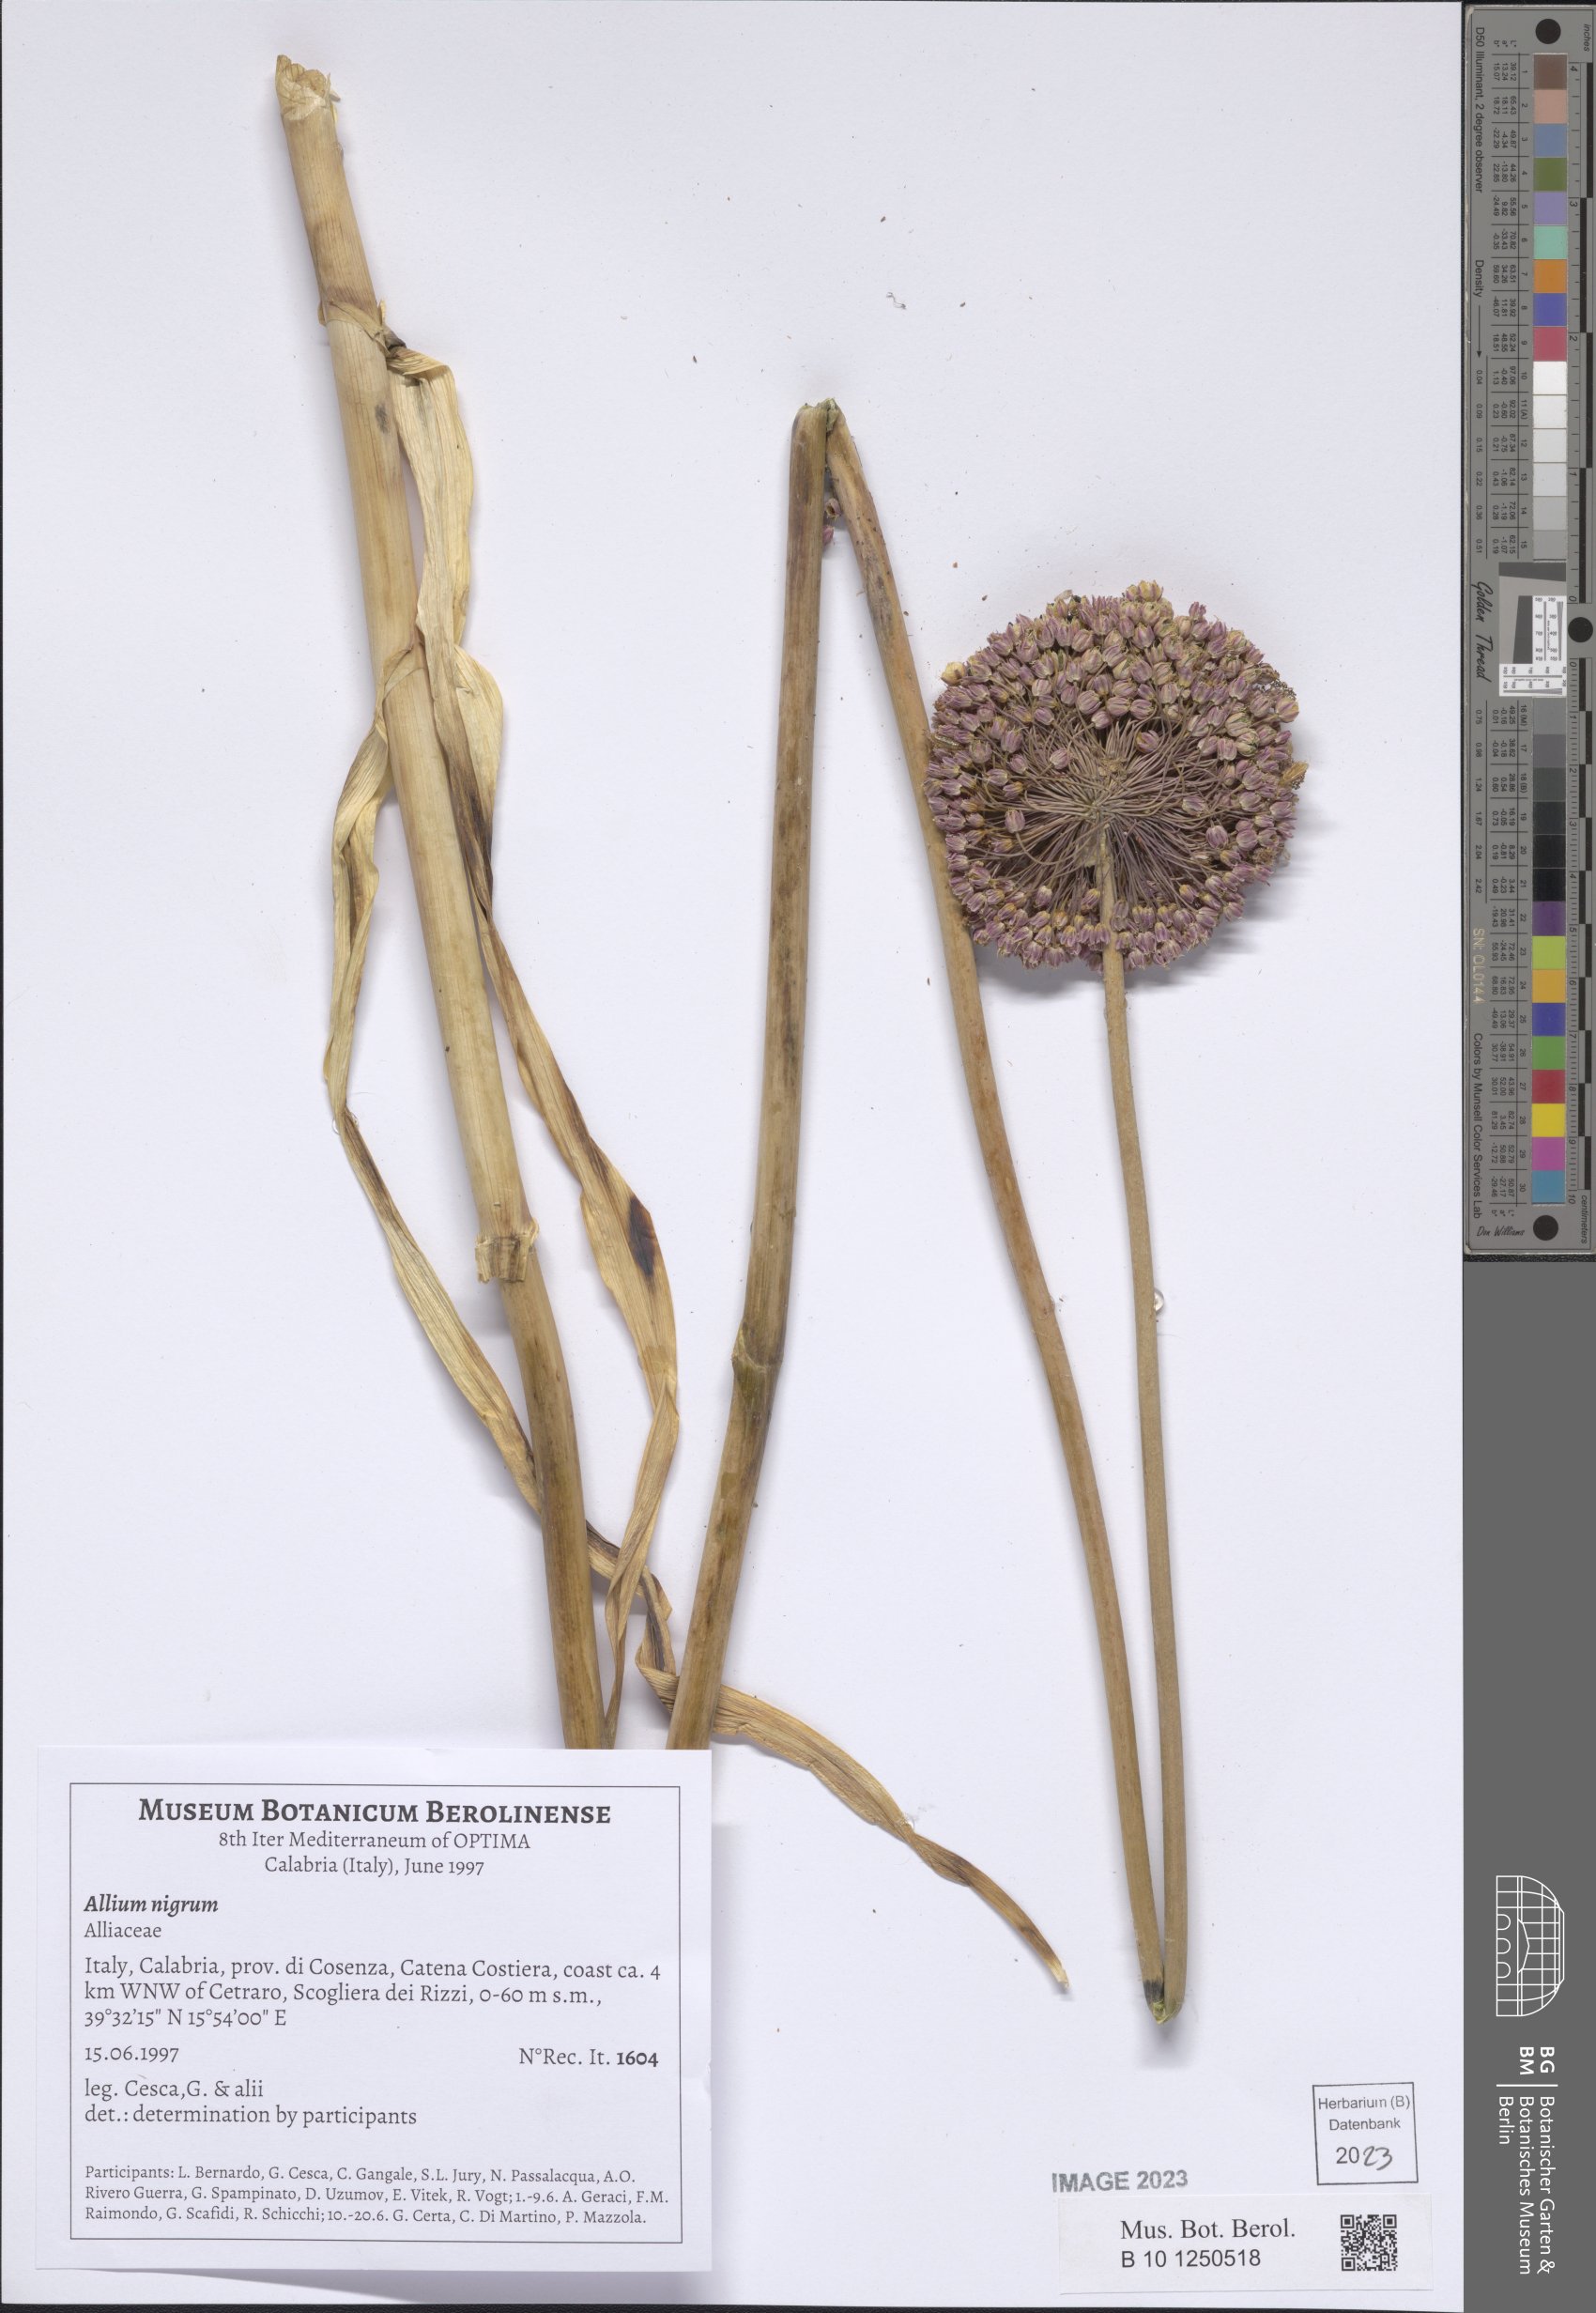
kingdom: Plantae
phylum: Tracheophyta
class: Liliopsida
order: Asparagales
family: Amaryllidaceae
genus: Allium
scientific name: Allium nigrum
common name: Black garlic
